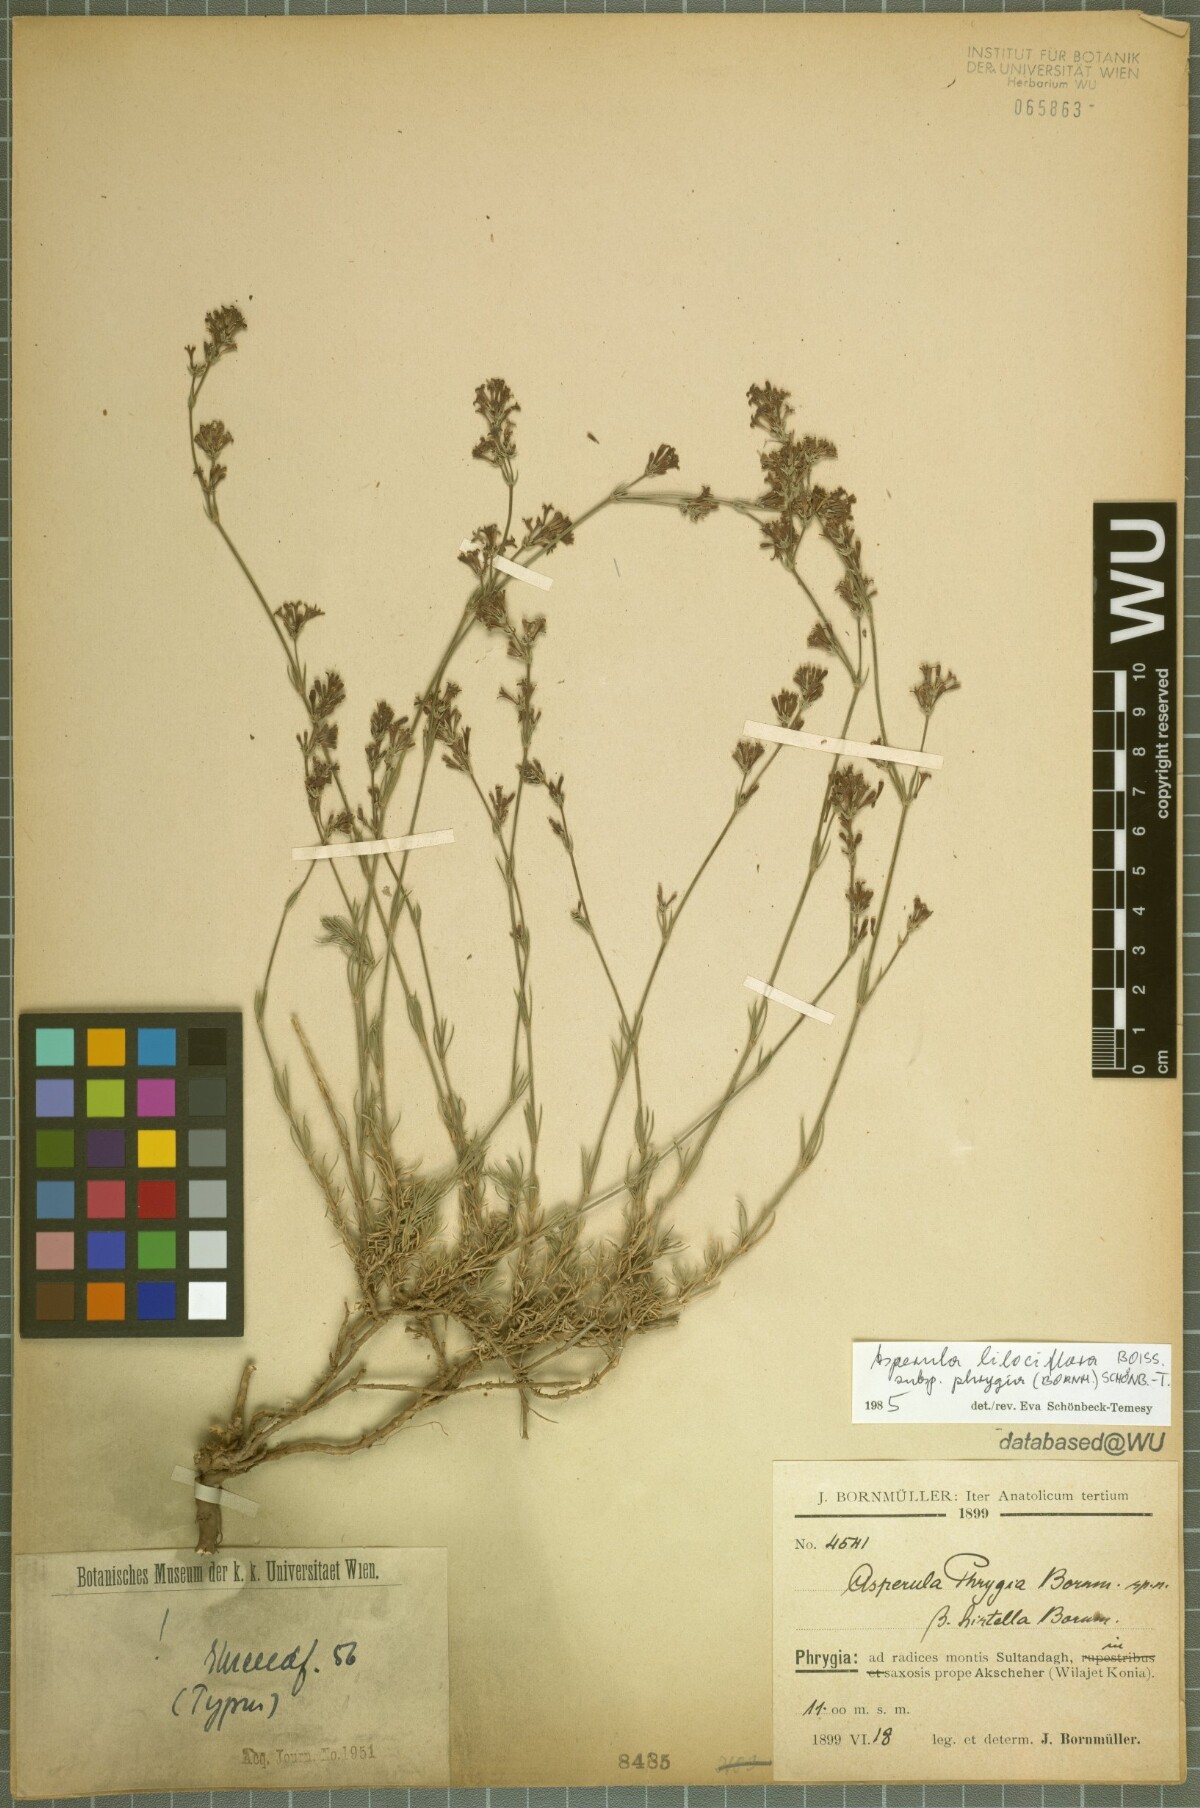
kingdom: Plantae
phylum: Tracheophyta
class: Magnoliopsida
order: Gentianales
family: Rubiaceae
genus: Cynanchica
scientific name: Cynanchica lilaciflora
